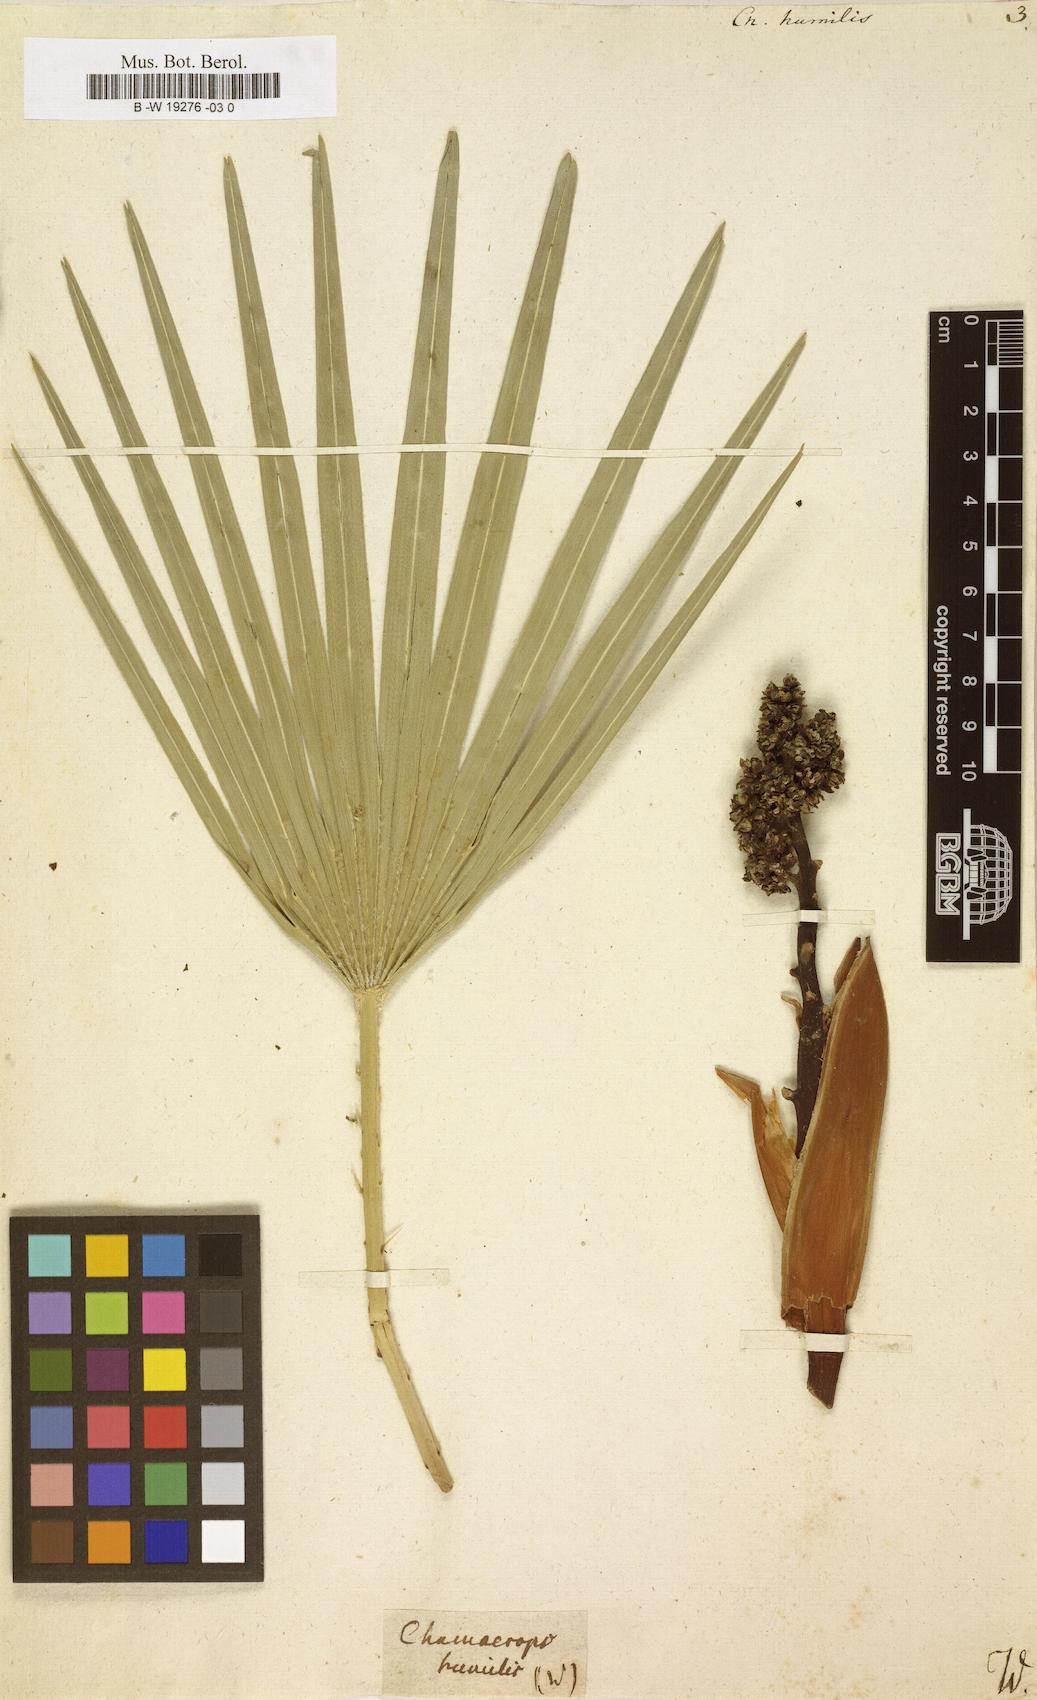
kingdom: Plantae
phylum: Tracheophyta
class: Liliopsida
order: Arecales
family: Arecaceae
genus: Chamaerops
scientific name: Chamaerops humilis
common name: Dwarf fan palm
